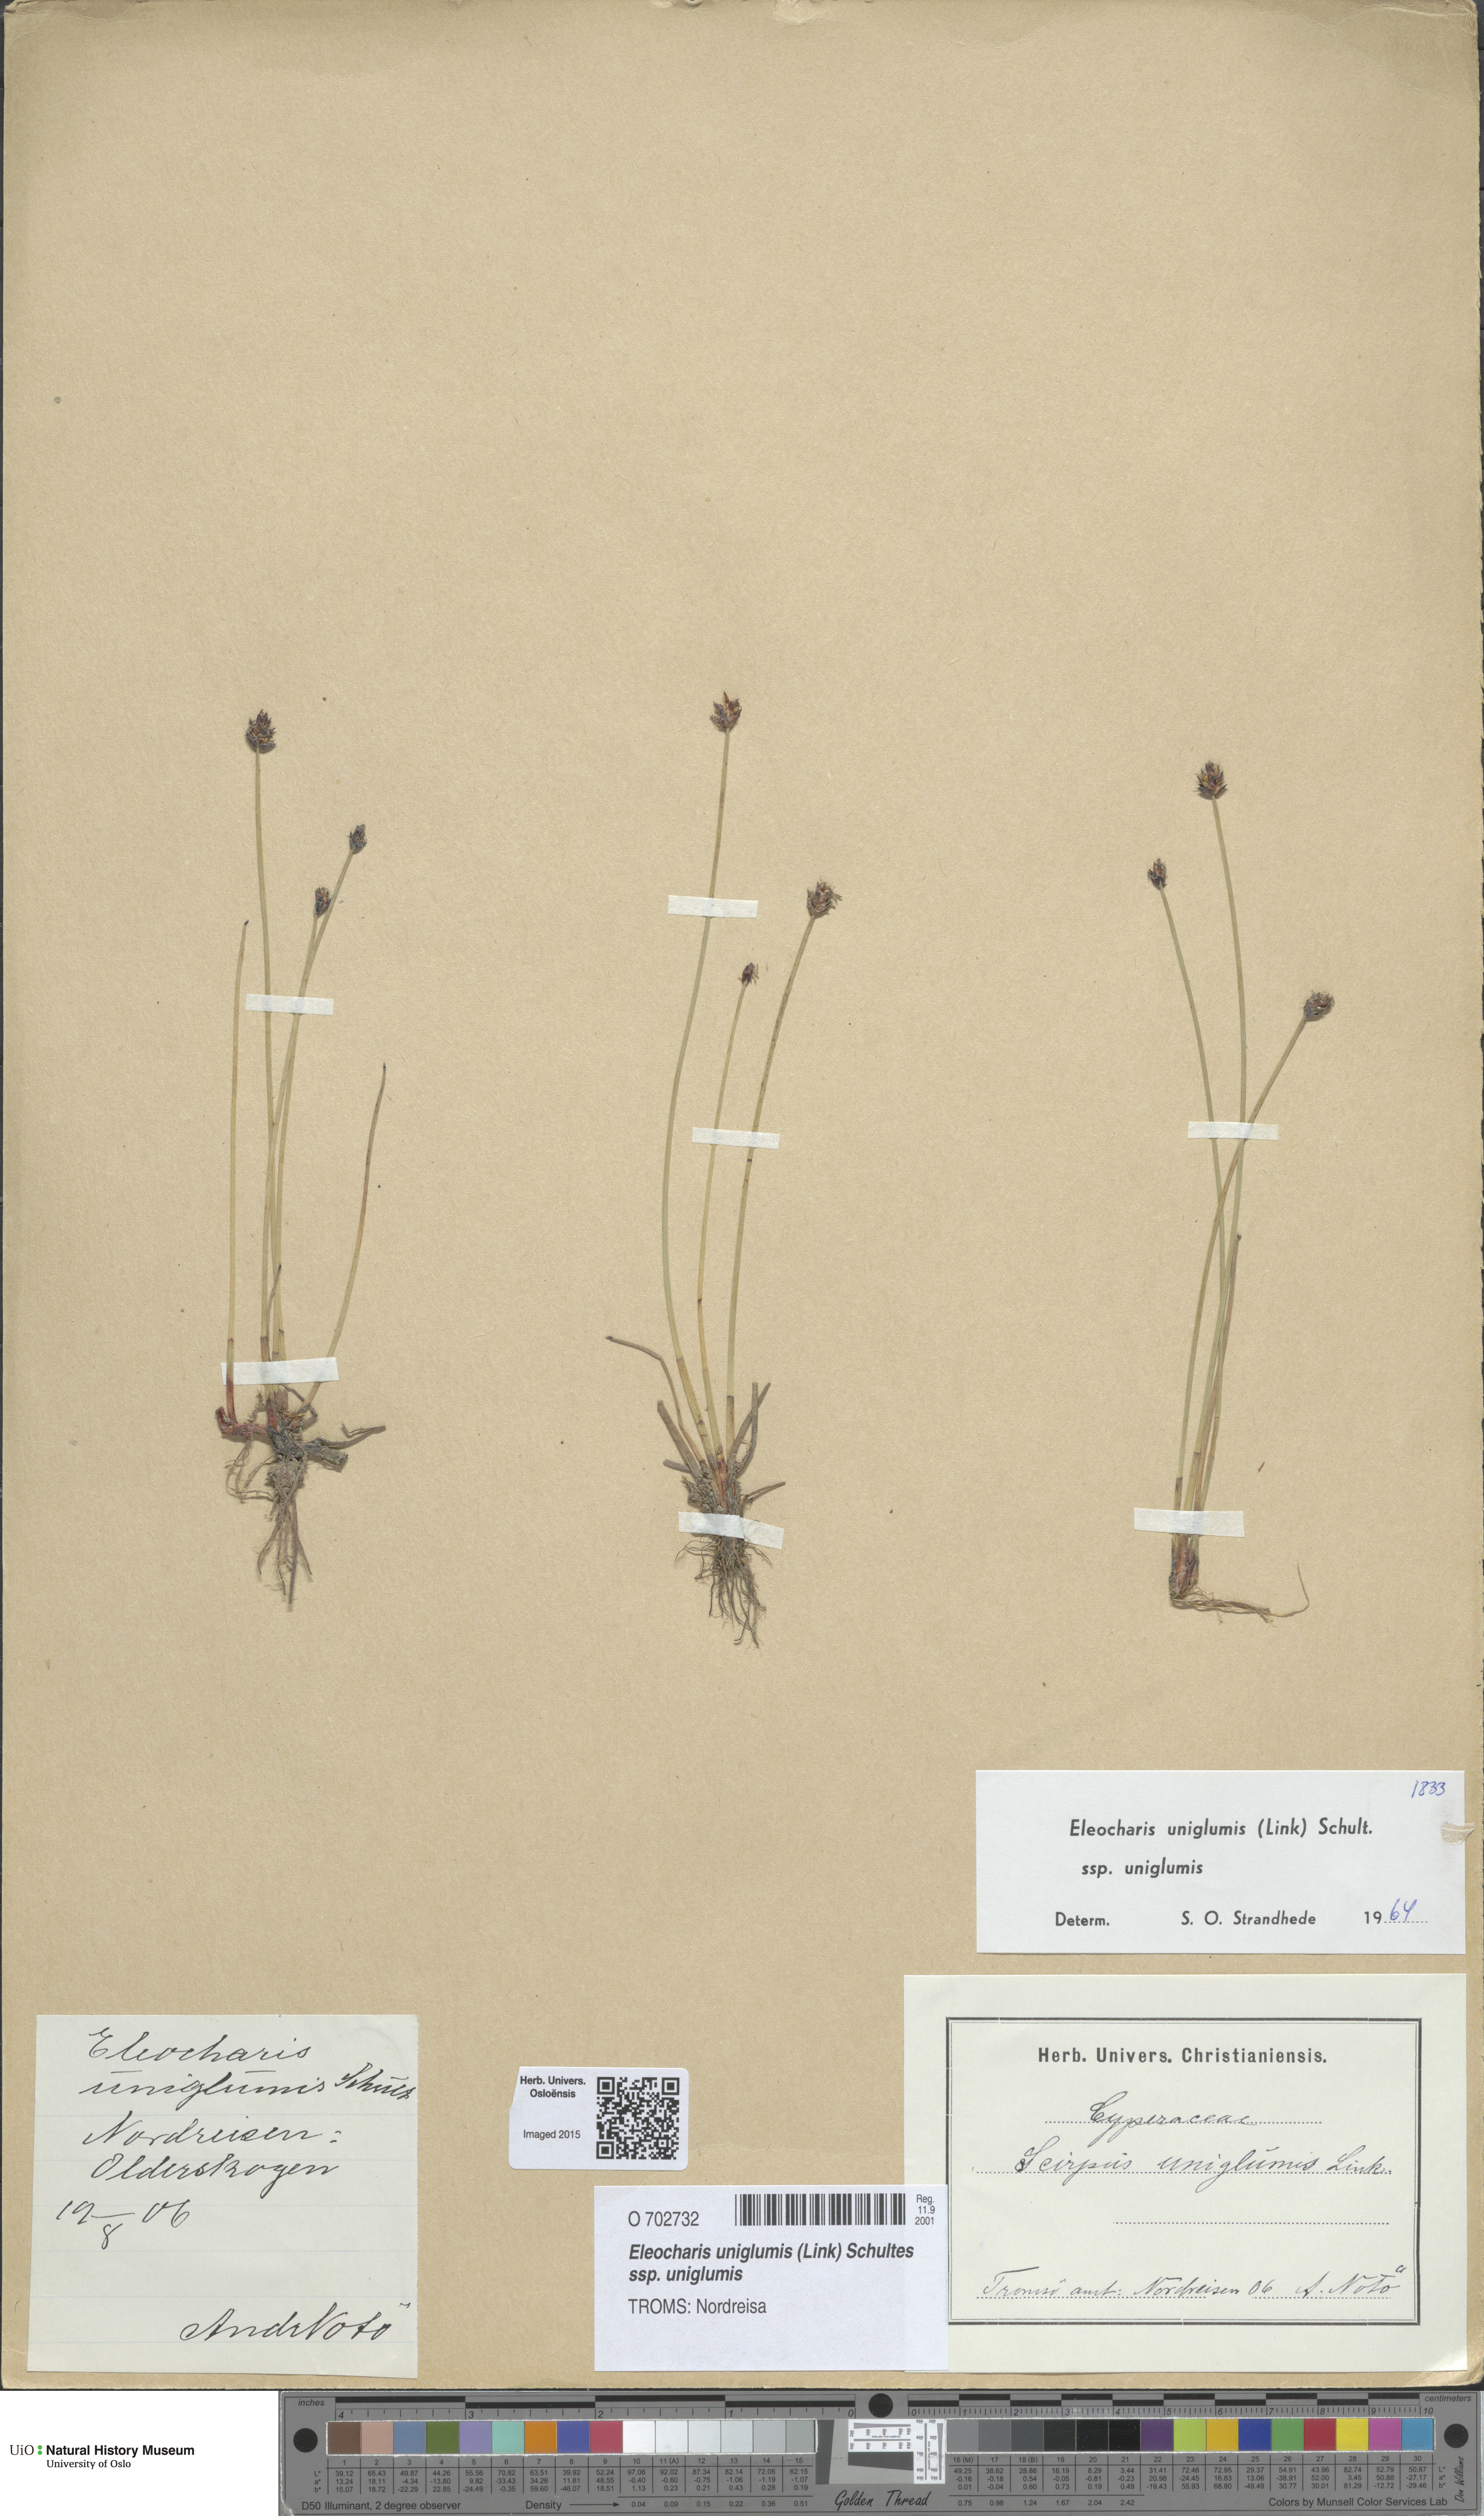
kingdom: Plantae
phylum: Tracheophyta
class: Liliopsida
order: Poales
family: Cyperaceae
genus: Eleocharis
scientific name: Eleocharis uniglumis
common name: Slender spike-rush
